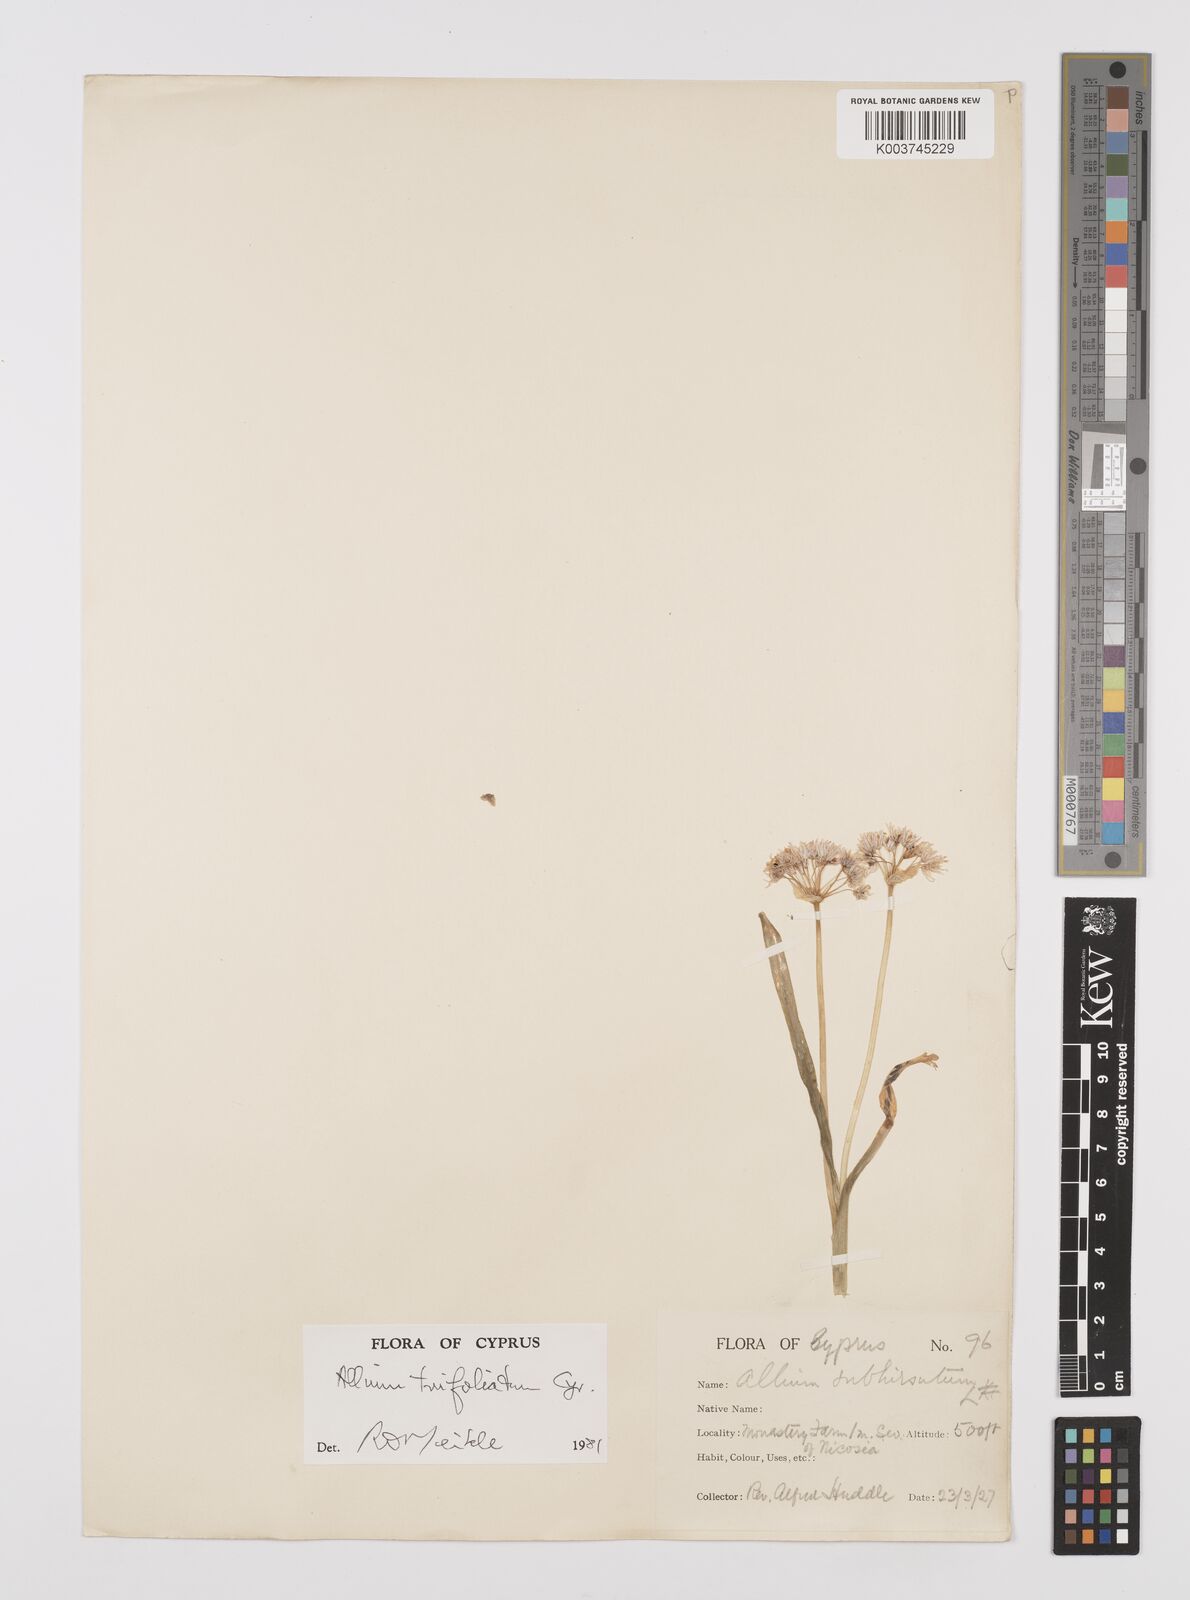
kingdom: Plantae
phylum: Tracheophyta
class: Liliopsida
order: Asparagales
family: Amaryllidaceae
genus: Allium
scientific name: Allium subhirsutum
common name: Hairy garlic
